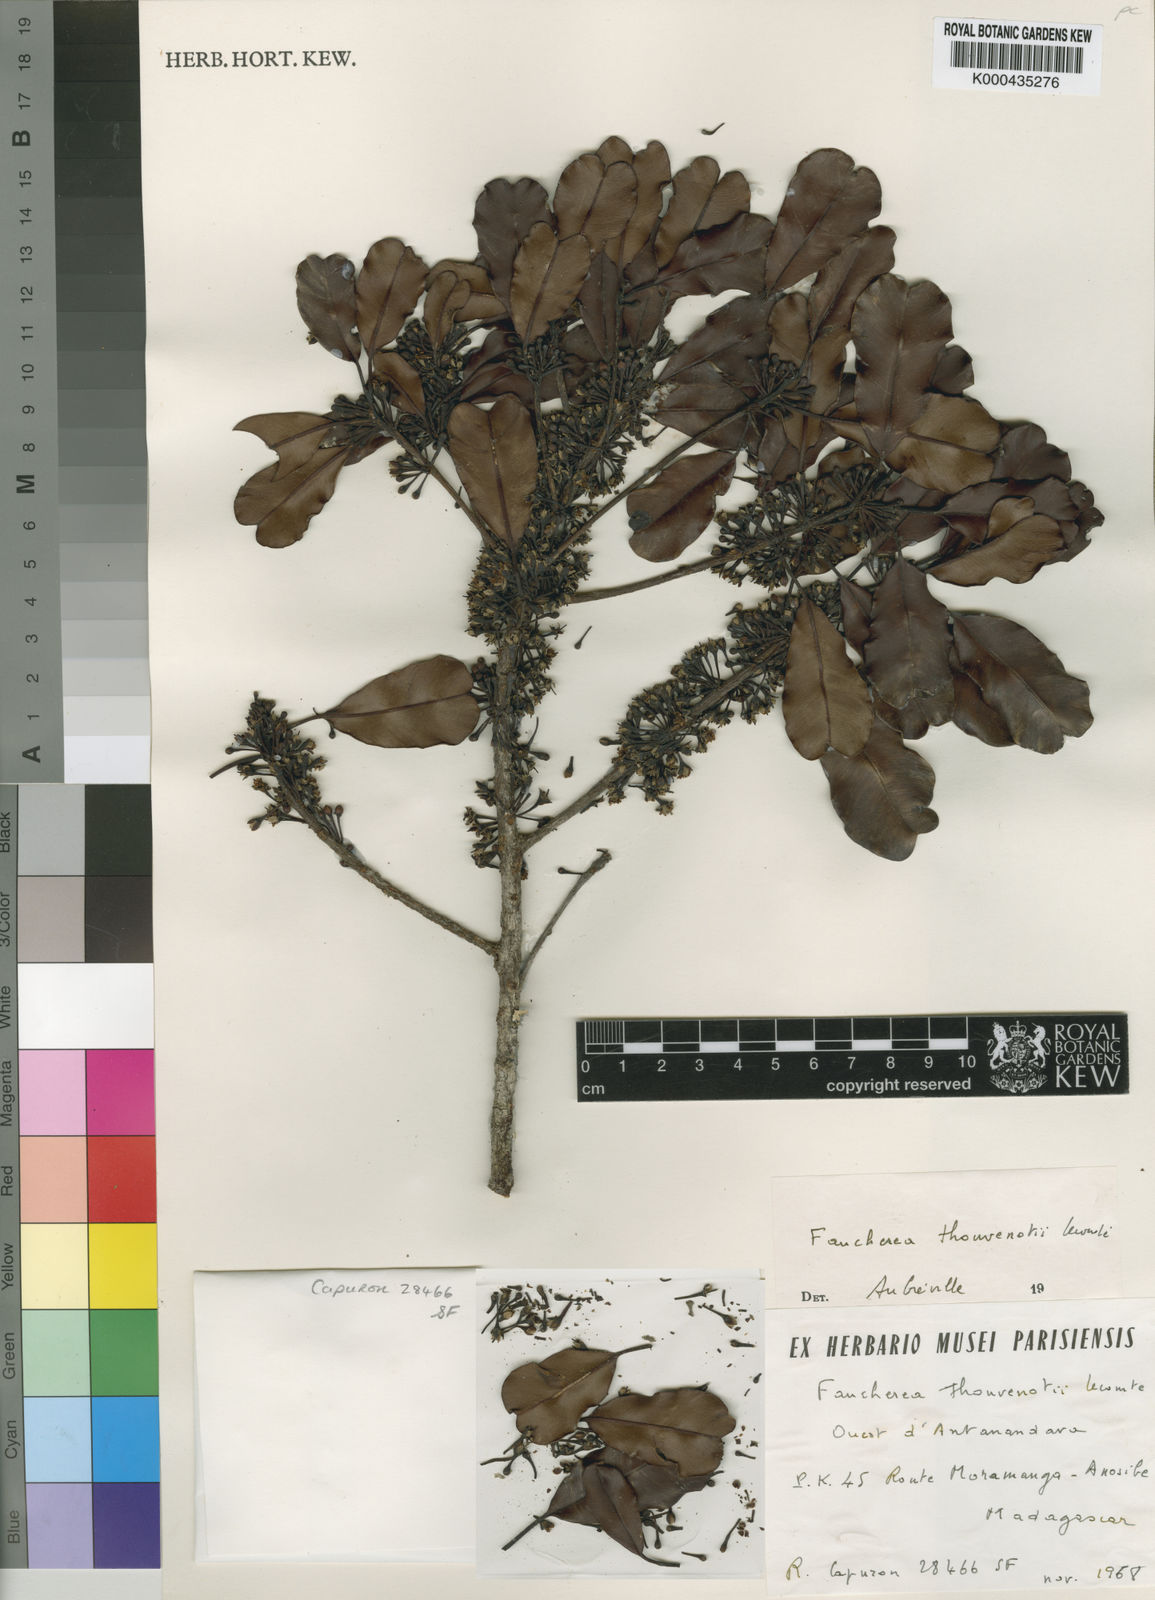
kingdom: Plantae
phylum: Tracheophyta
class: Magnoliopsida
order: Ericales
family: Sapotaceae
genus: Faucherea
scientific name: Faucherea thouvenotii
